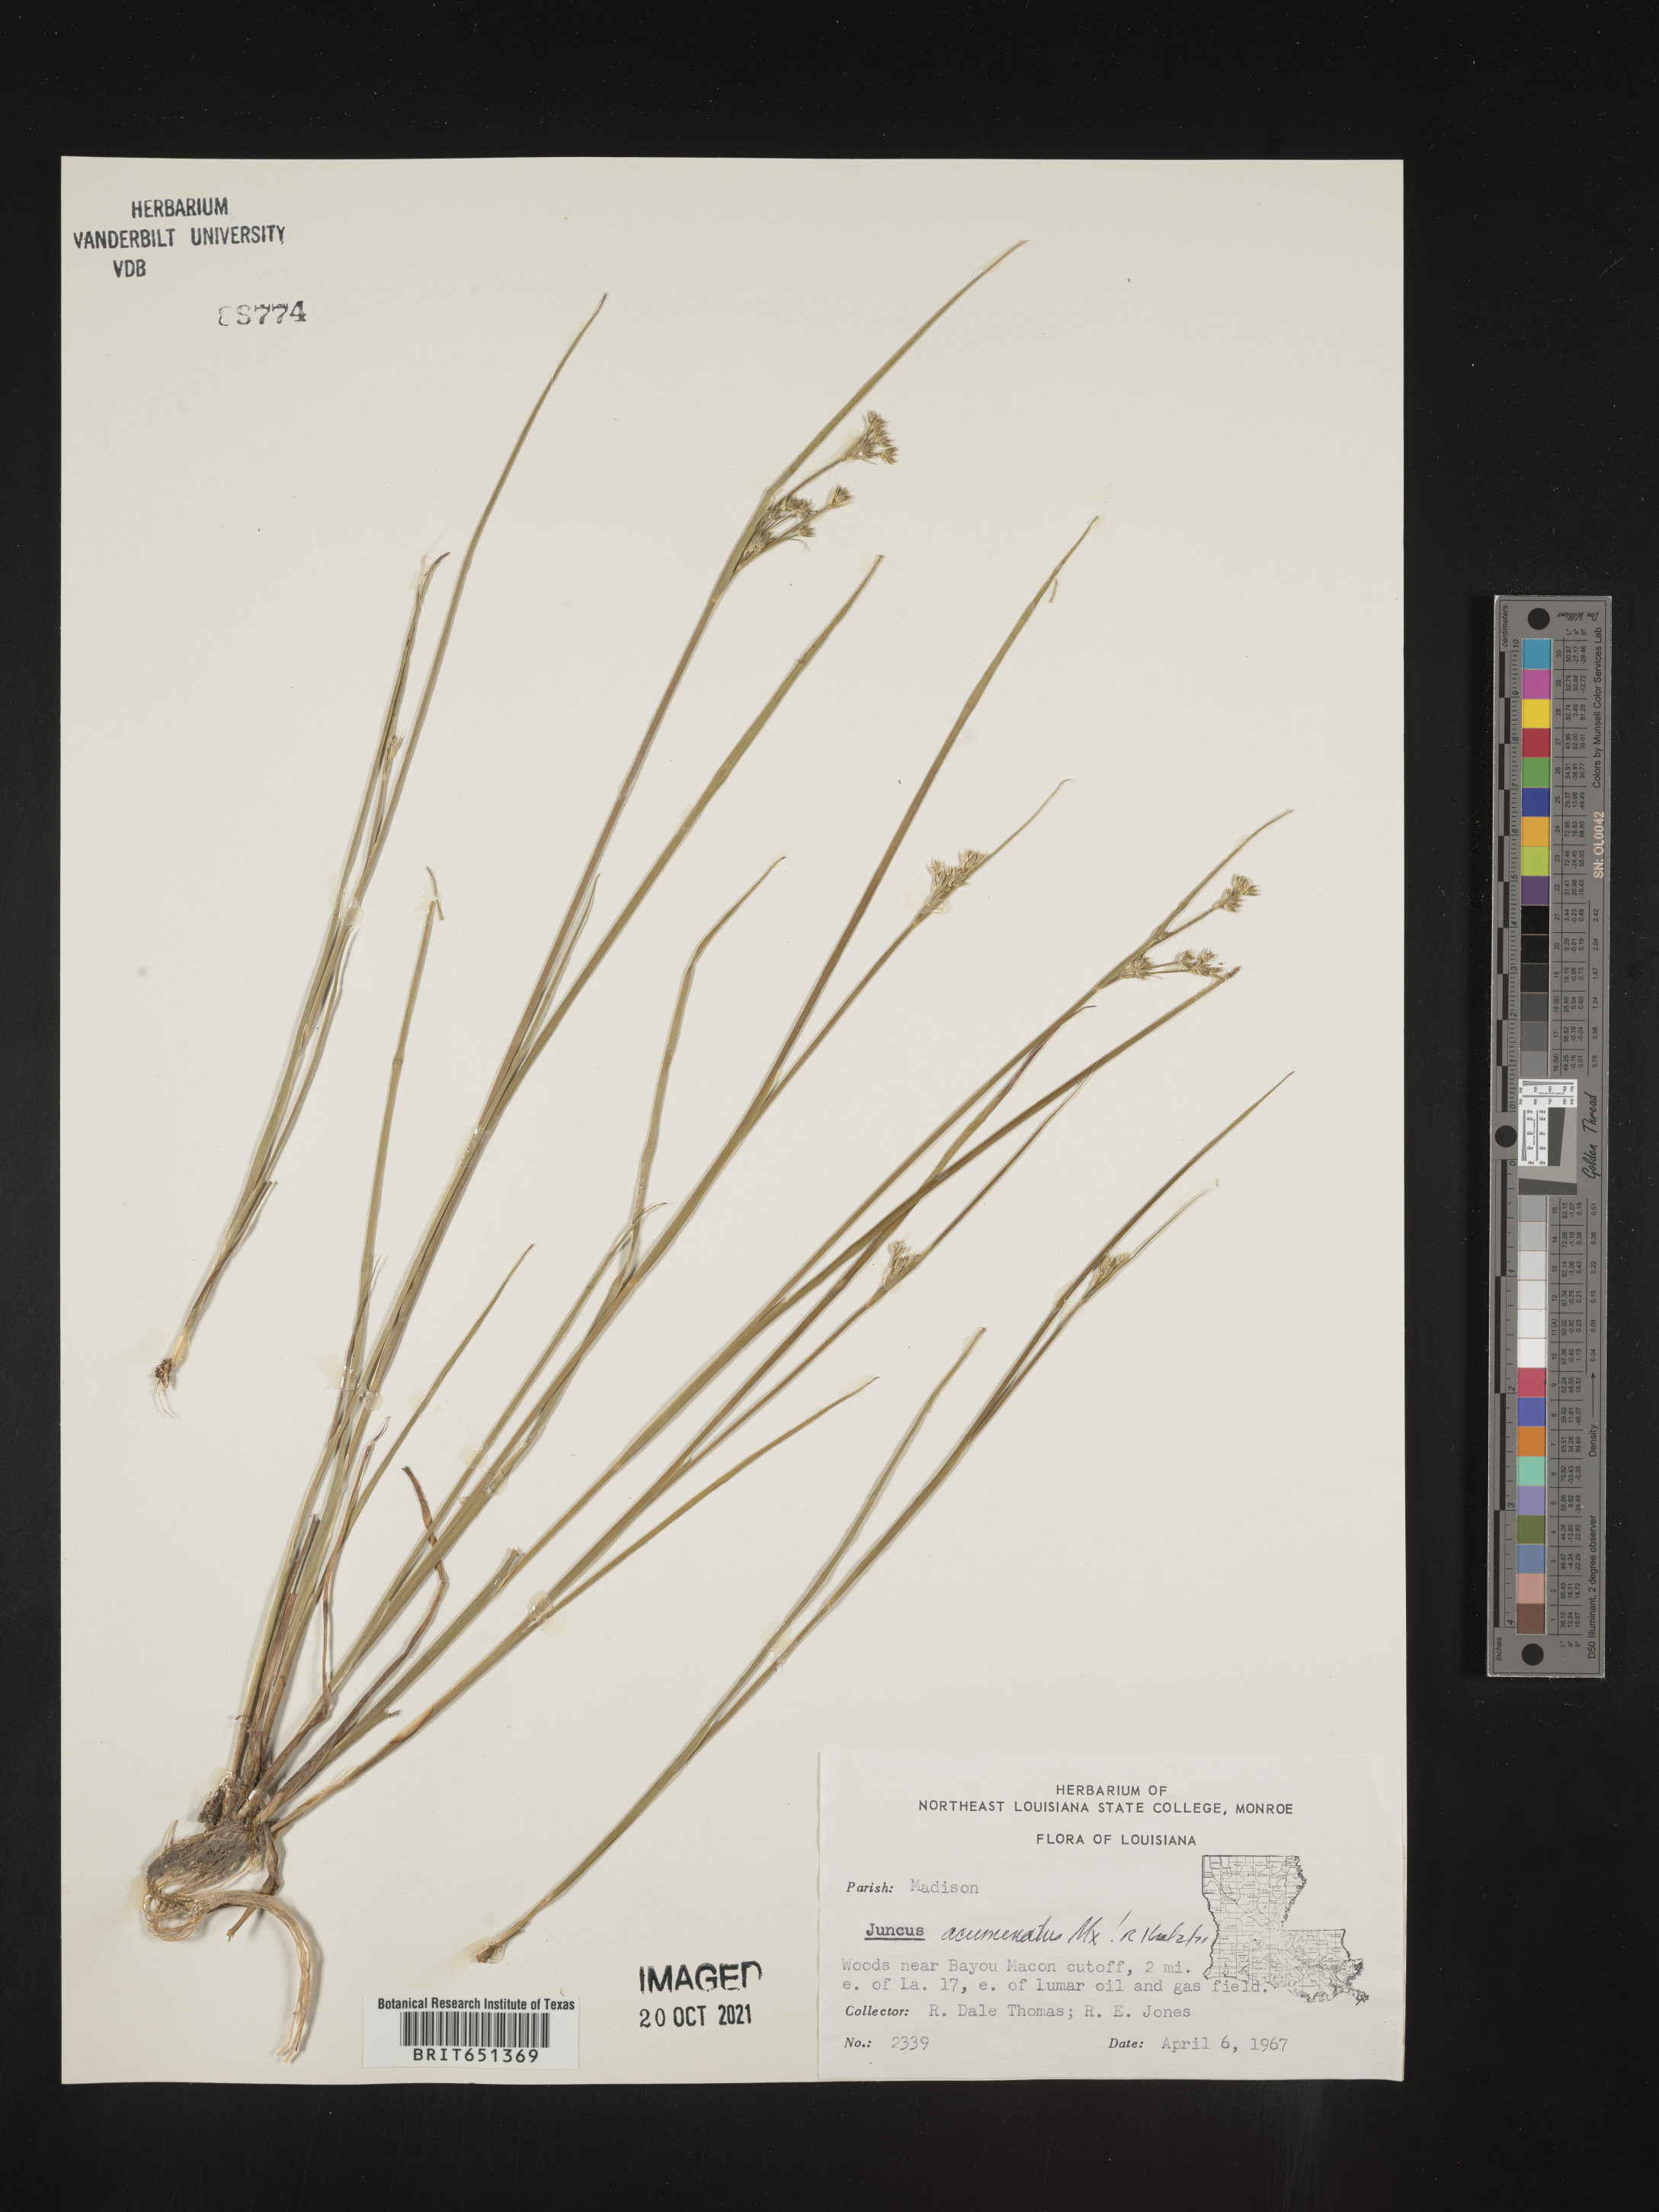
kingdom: Plantae
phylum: Tracheophyta
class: Liliopsida
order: Poales
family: Juncaceae
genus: Juncus
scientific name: Juncus acuminatus
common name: Knotty-leaved rush
